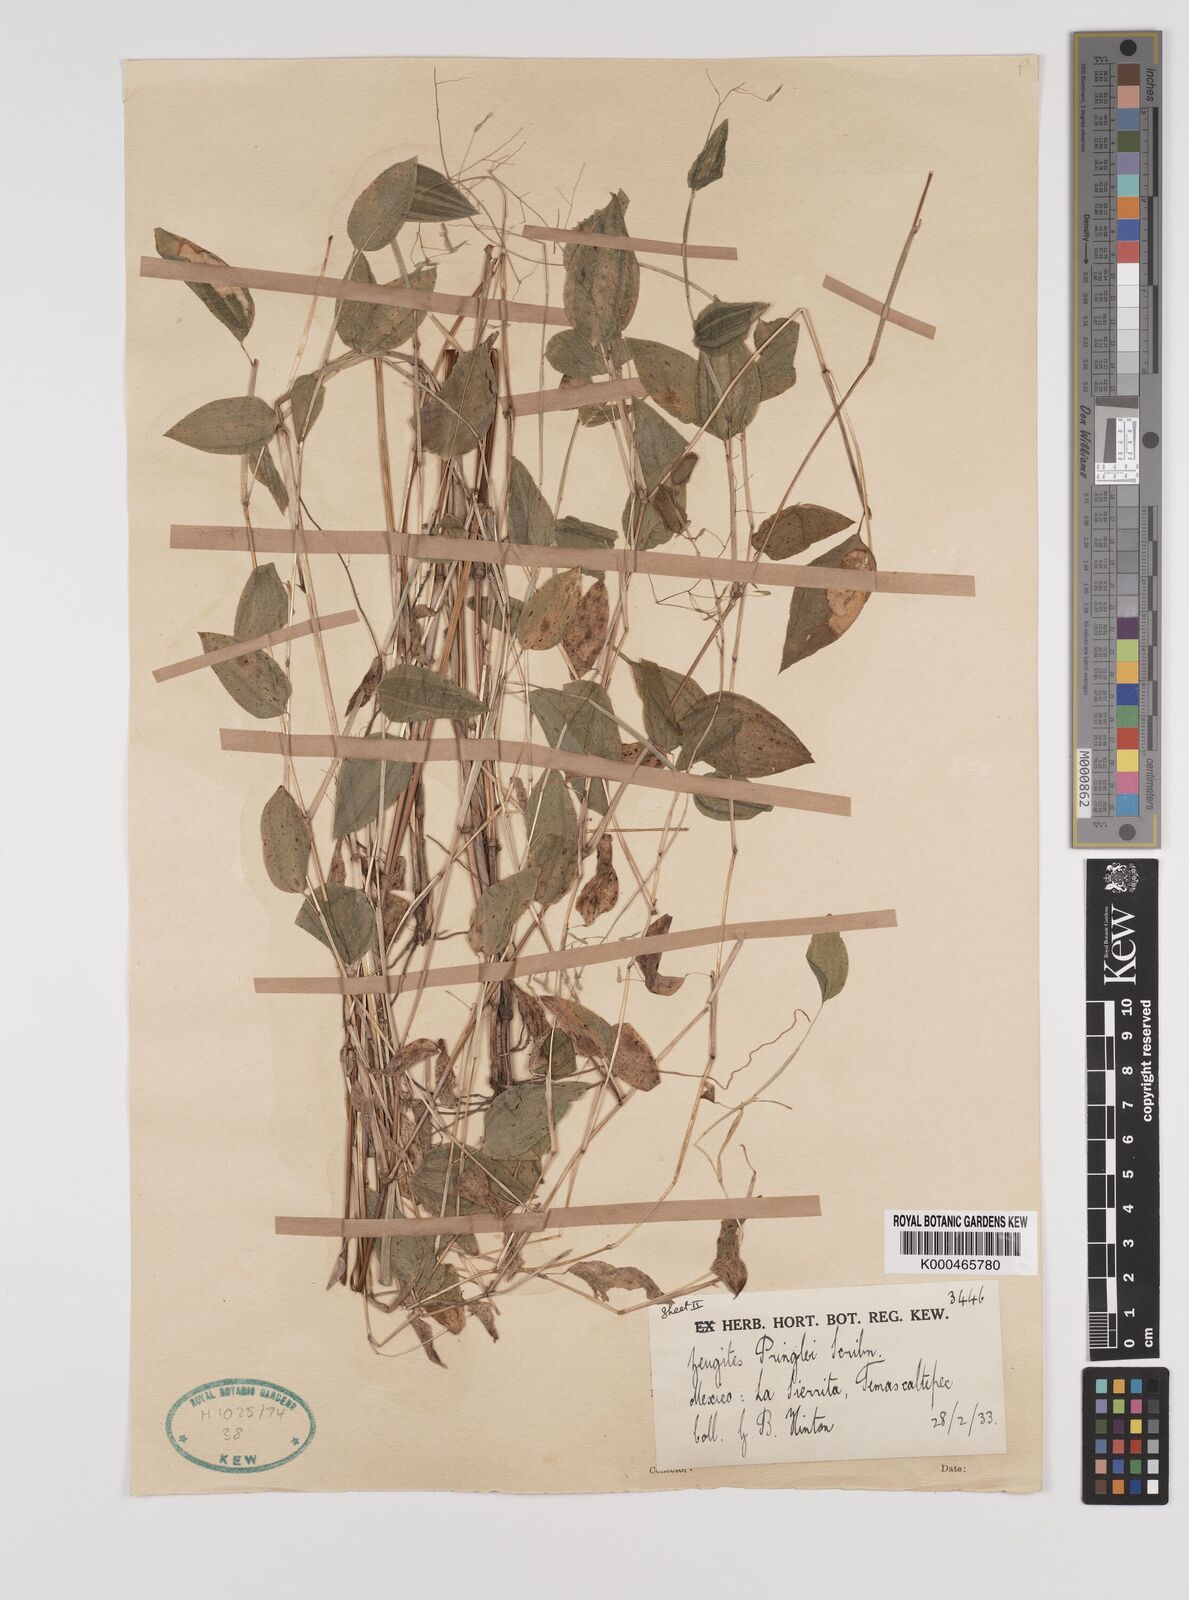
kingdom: Plantae
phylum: Tracheophyta
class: Liliopsida
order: Poales
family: Poaceae
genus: Zeugites
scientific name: Zeugites americanus
